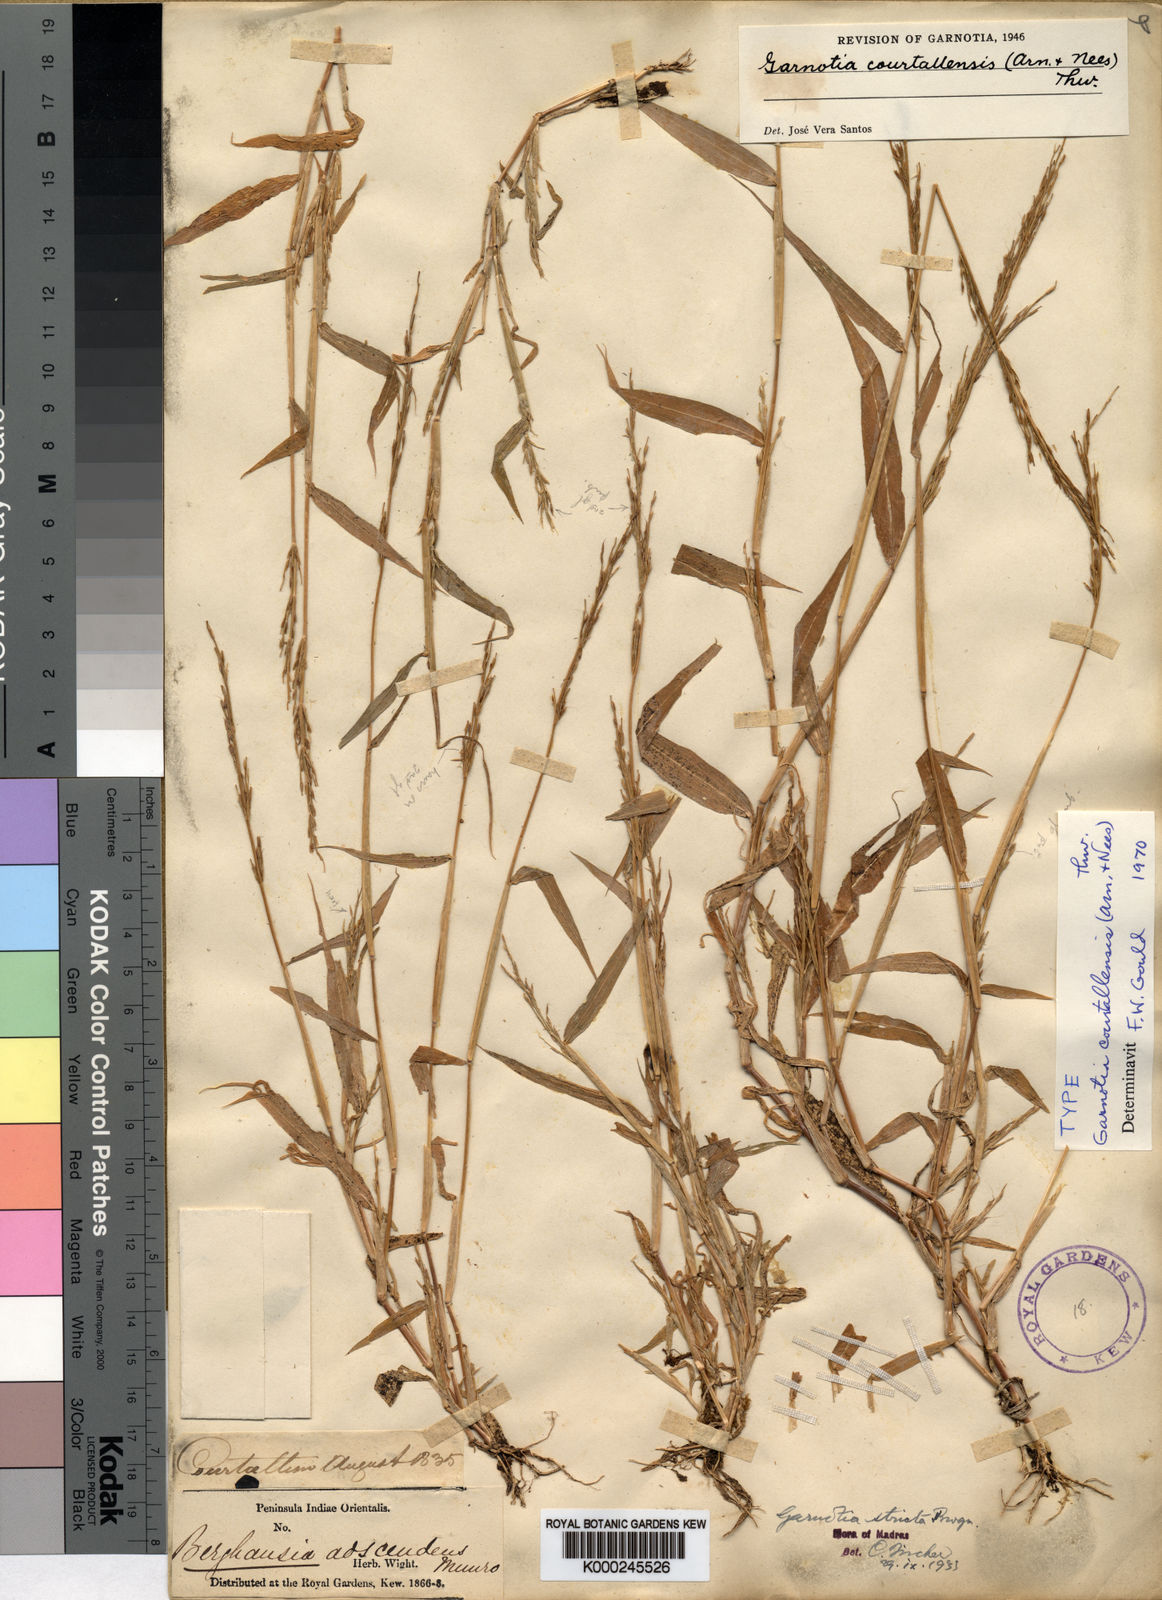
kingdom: Plantae
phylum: Tracheophyta
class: Liliopsida
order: Poales
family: Poaceae
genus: Garnotia
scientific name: Garnotia courtallensis
